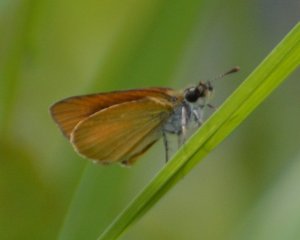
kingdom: Animalia
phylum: Arthropoda
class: Insecta
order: Lepidoptera
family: Hesperiidae
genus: Ancyloxypha
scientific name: Ancyloxypha numitor
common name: Least Skipper
